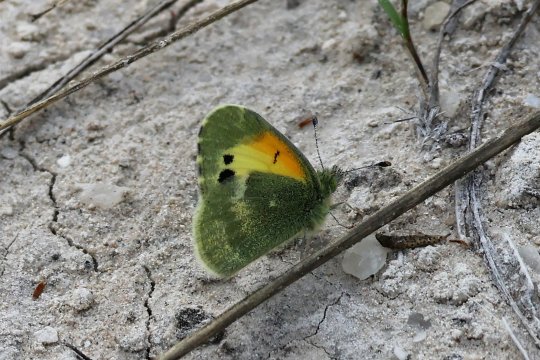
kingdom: Animalia
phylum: Arthropoda
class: Insecta
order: Lepidoptera
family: Pieridae
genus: Nathalis
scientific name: Nathalis iole
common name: Dainty Sulphur
